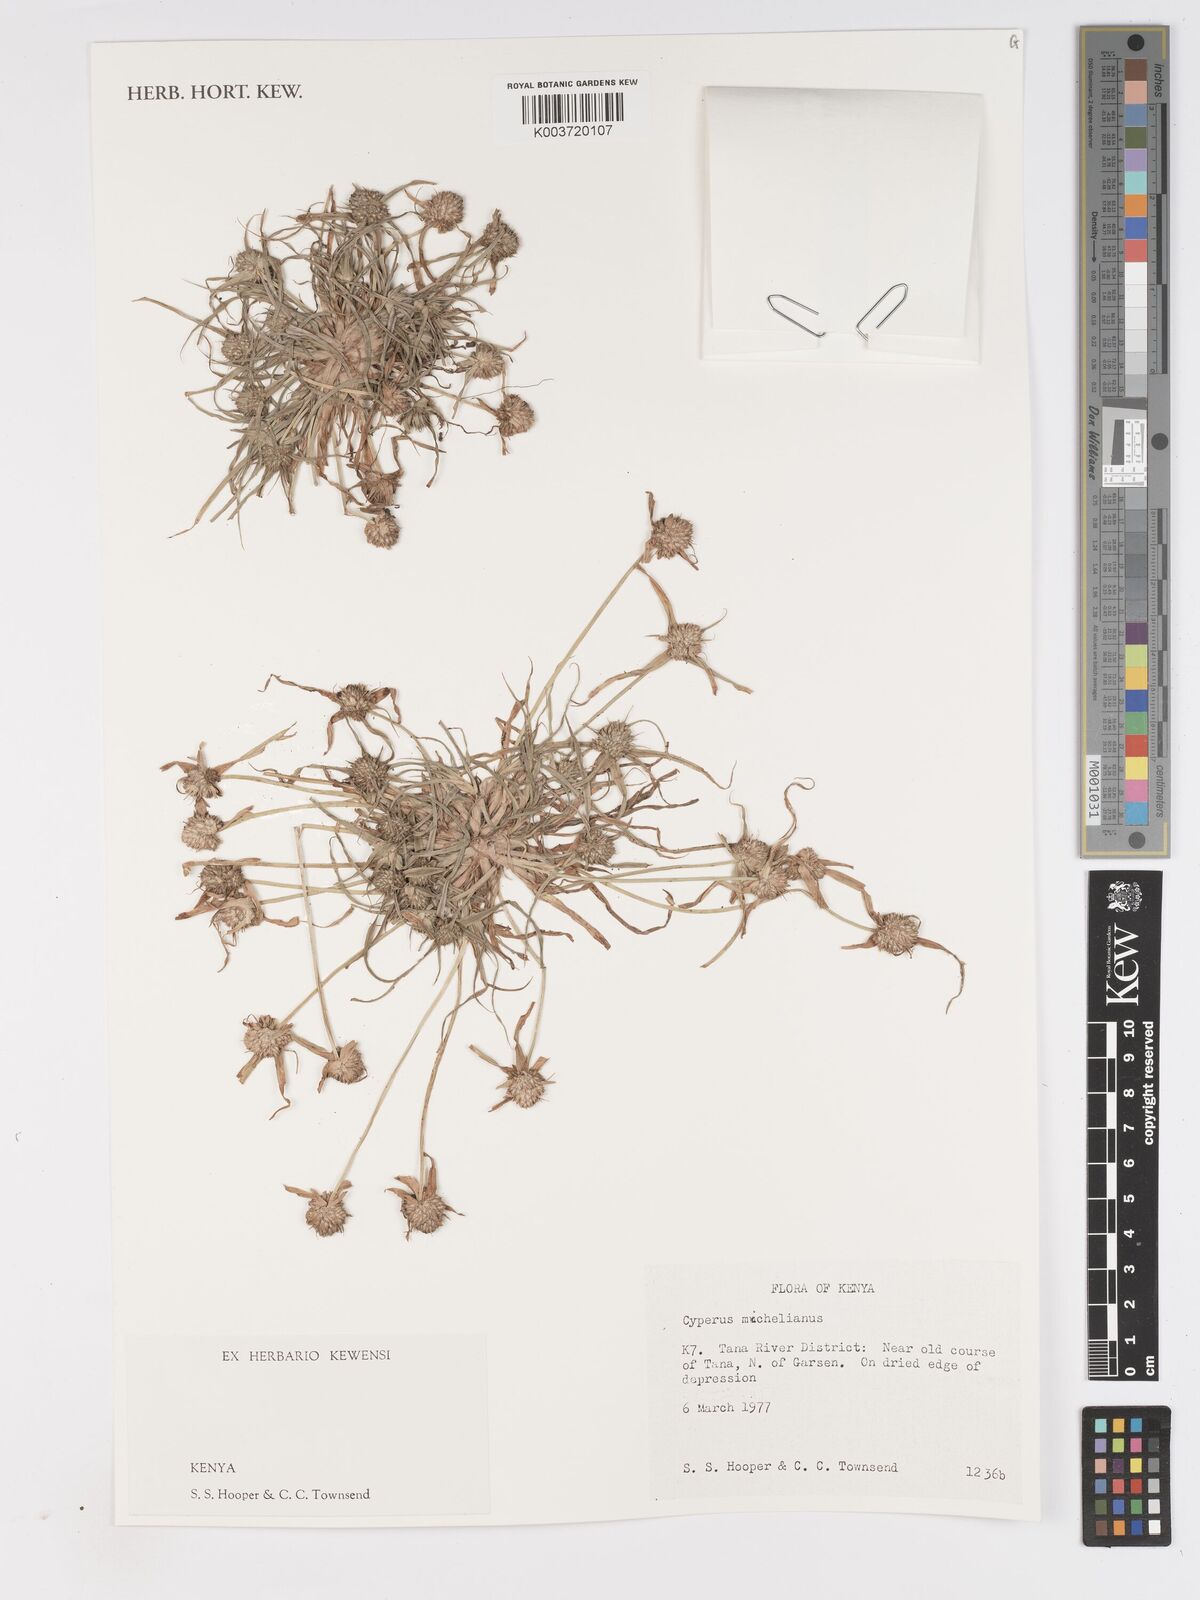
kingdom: Plantae
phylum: Tracheophyta
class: Liliopsida
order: Poales
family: Cyperaceae
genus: Cyperus
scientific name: Cyperus michelianus
